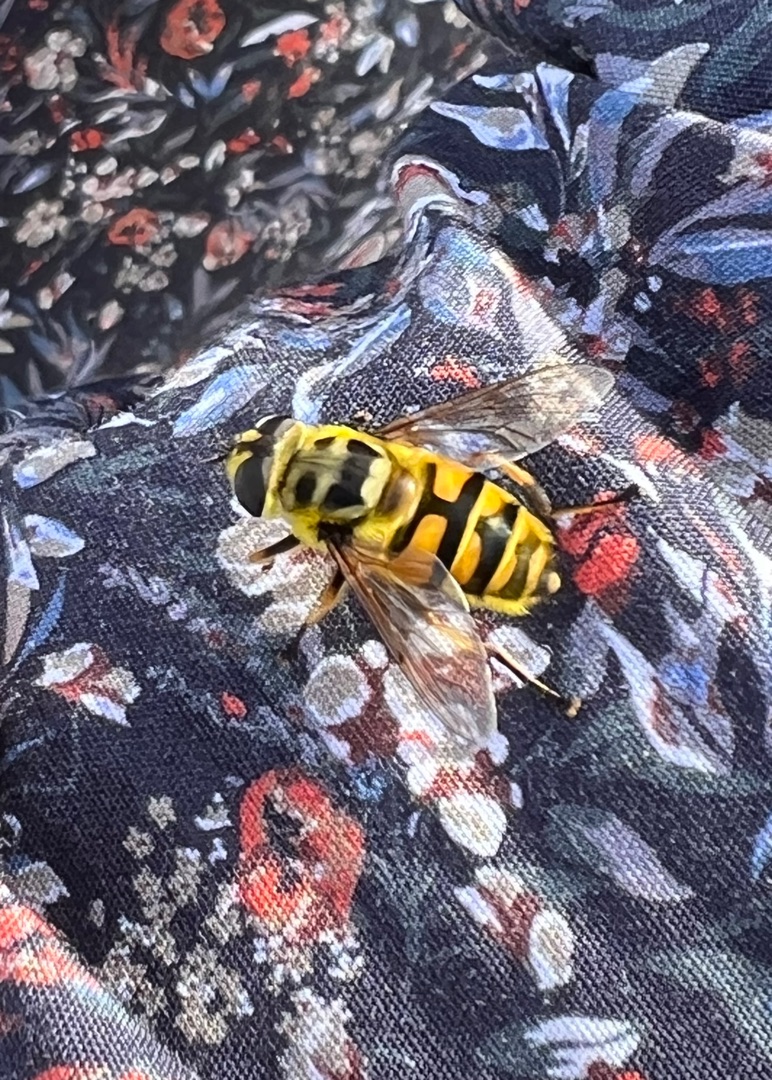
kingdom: Animalia
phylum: Arthropoda
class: Insecta
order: Diptera
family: Syrphidae
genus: Myathropa
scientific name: Myathropa florea
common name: Dødningehoved-svirreflue
